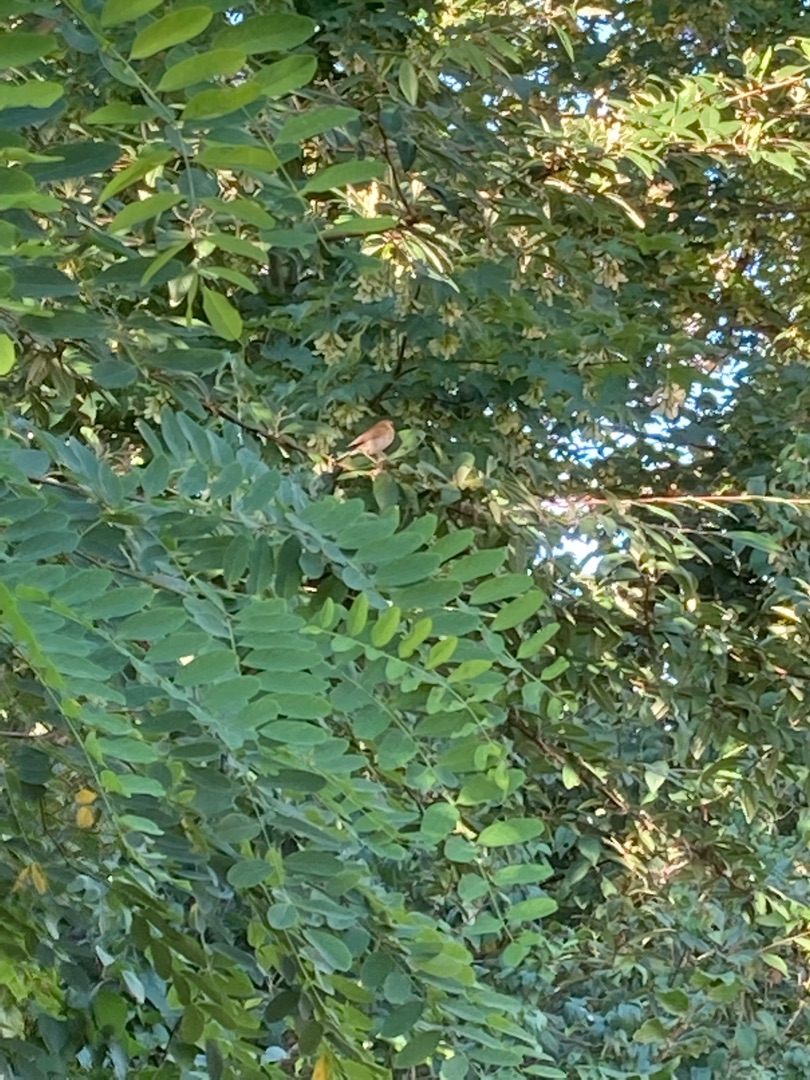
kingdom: Animalia
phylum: Chordata
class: Aves
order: Passeriformes
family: Phylloscopidae
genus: Phylloscopus
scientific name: Phylloscopus collybita
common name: Gransanger
